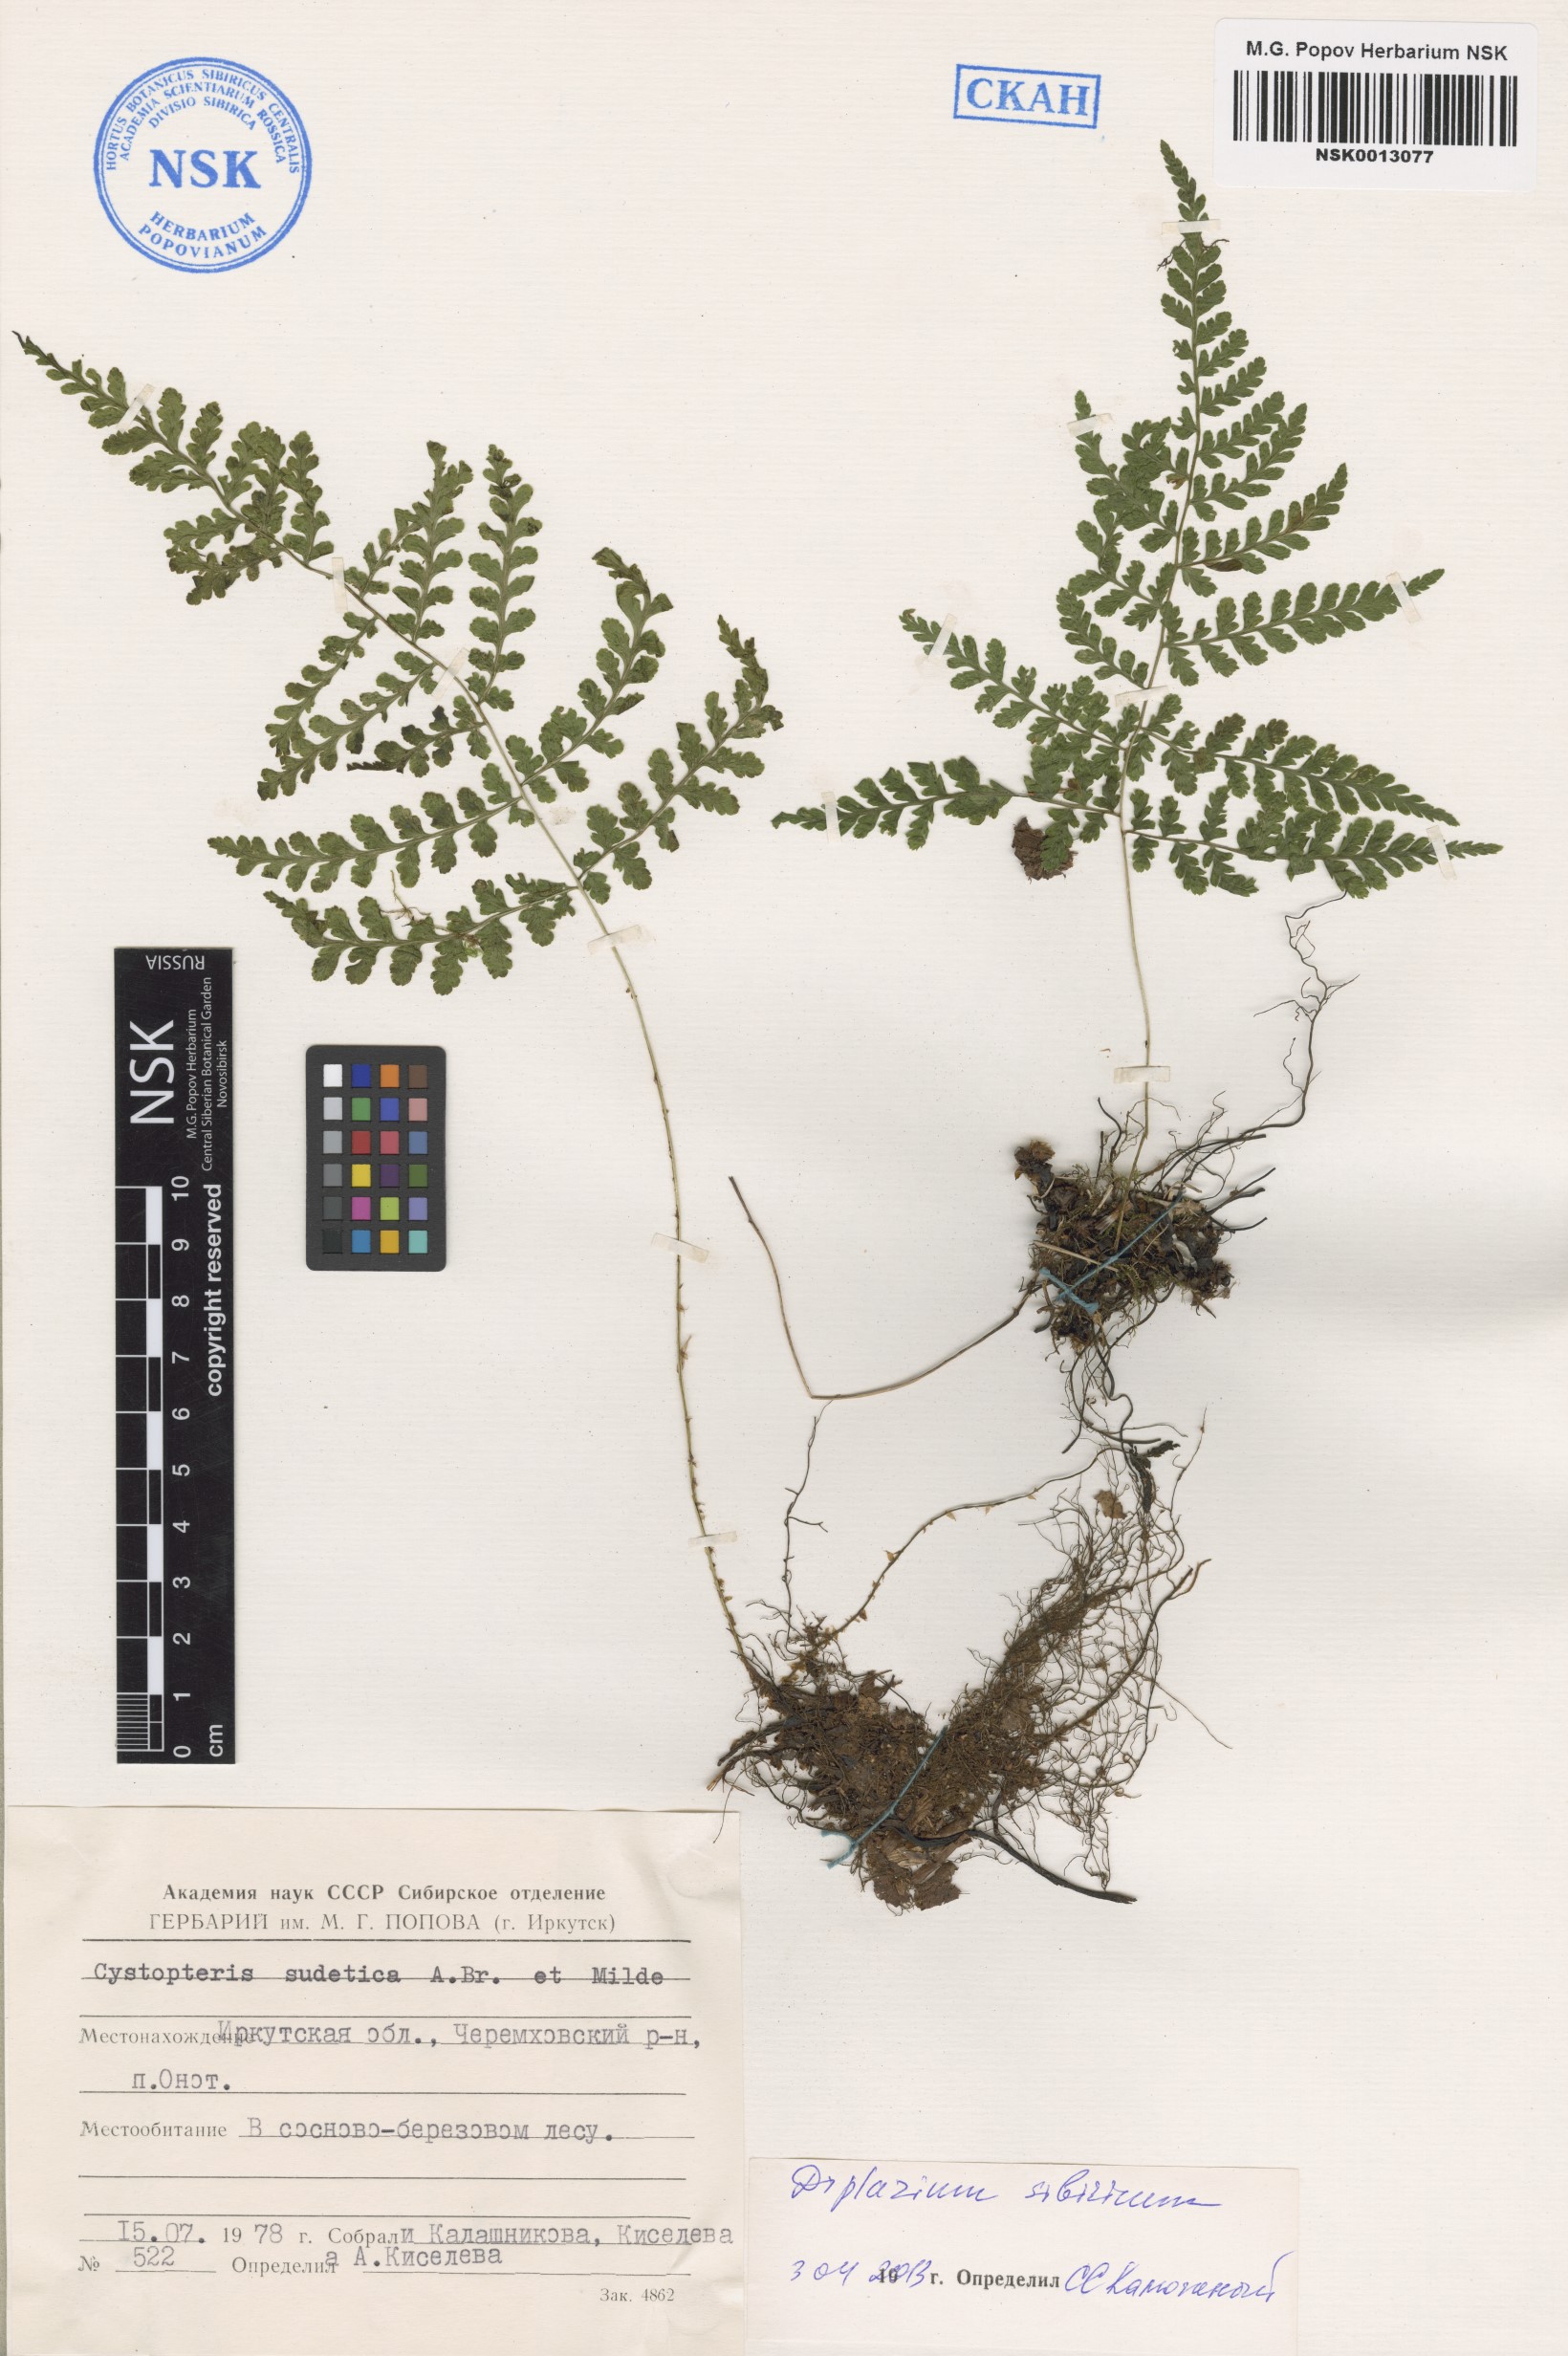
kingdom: Plantae
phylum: Tracheophyta
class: Polypodiopsida
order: Polypodiales
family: Athyriaceae
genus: Diplazium
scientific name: Diplazium sibiricum
